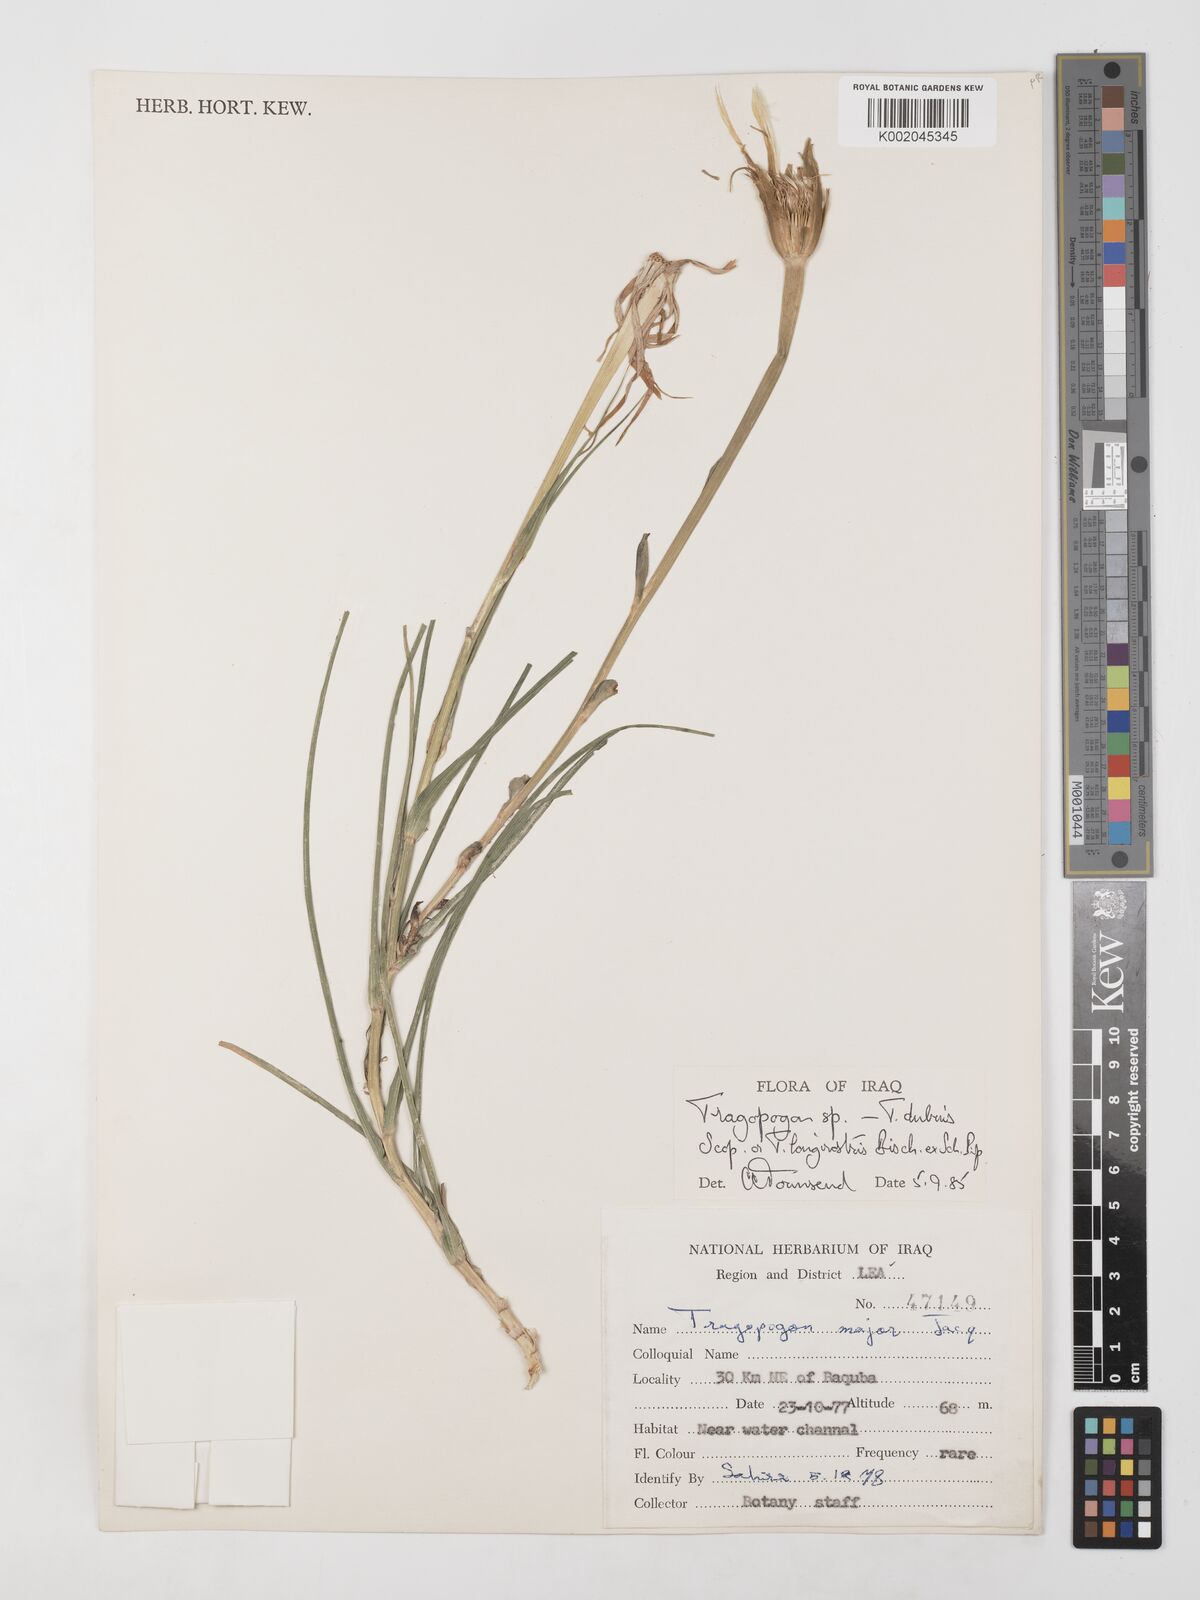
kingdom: Plantae
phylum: Tracheophyta
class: Magnoliopsida
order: Asterales
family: Asteraceae
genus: Tragopogon
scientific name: Tragopogon dubius
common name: Yellow salsify
